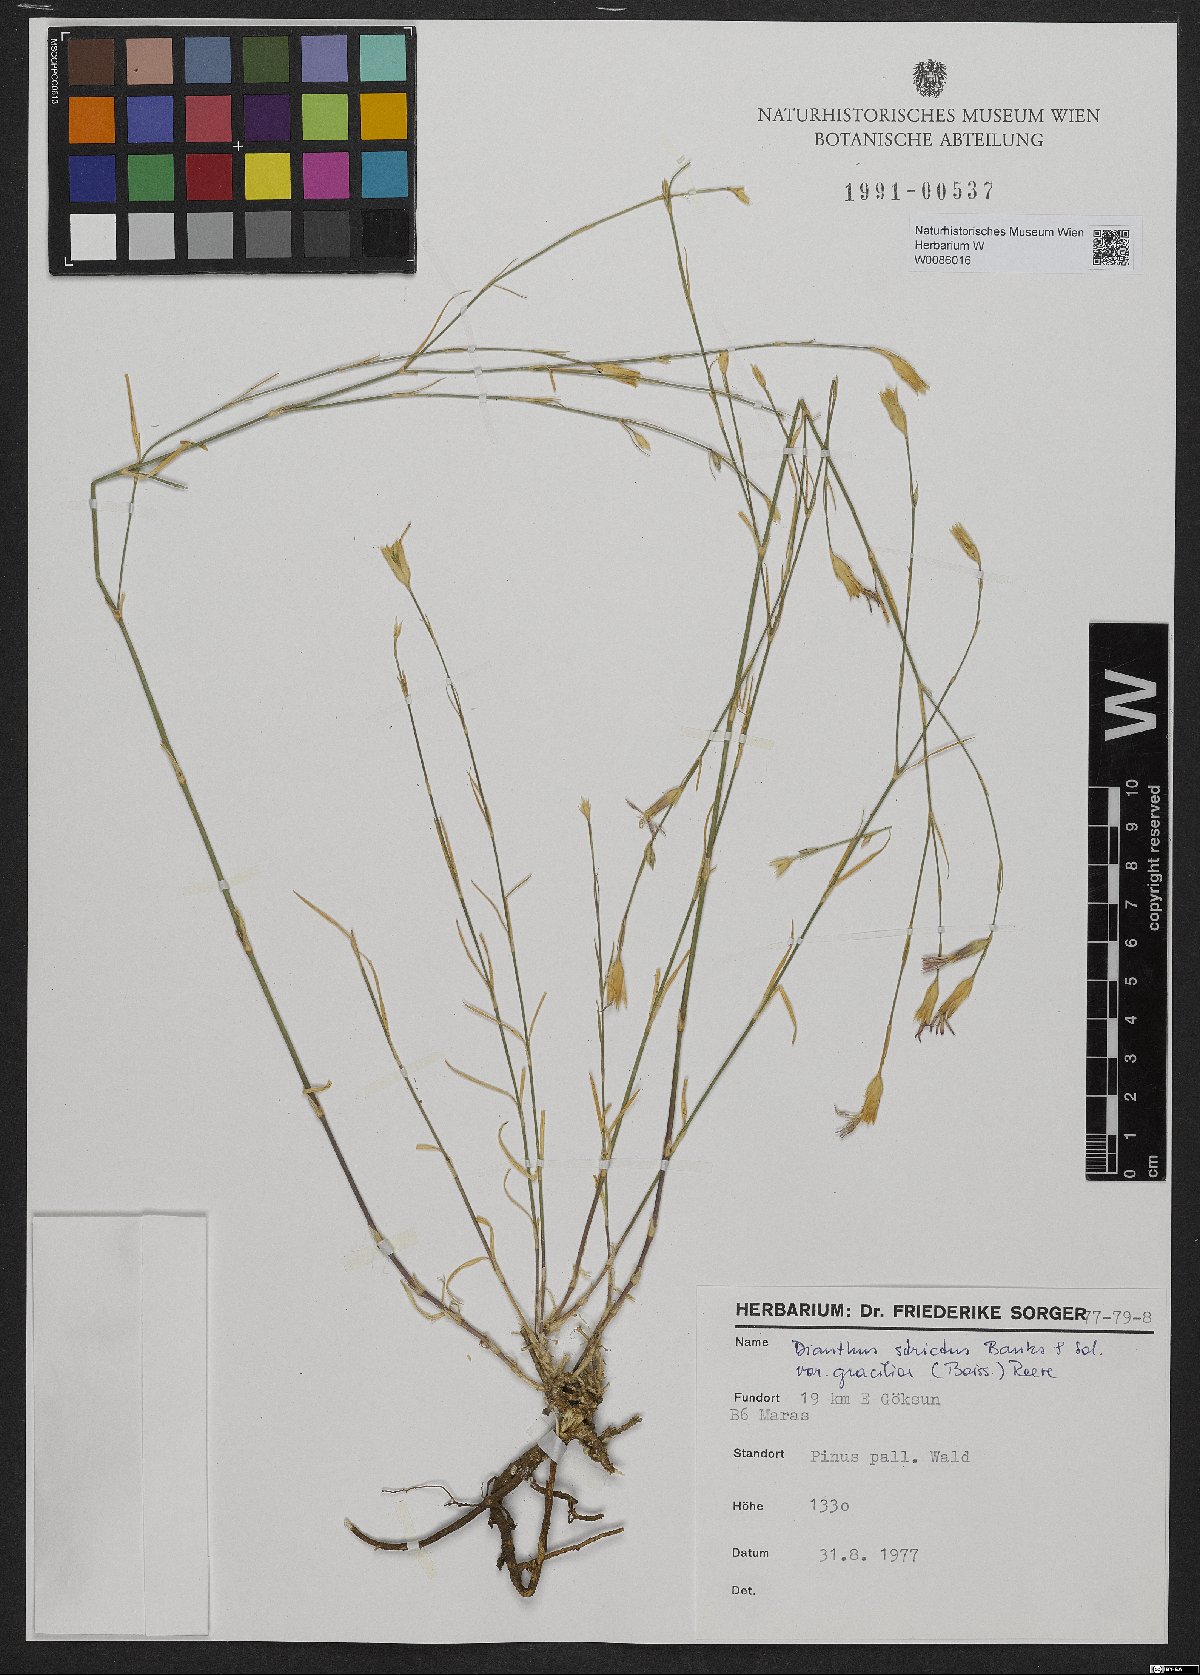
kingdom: Plantae
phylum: Tracheophyta
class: Magnoliopsida
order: Caryophyllales
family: Caryophyllaceae
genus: Dianthus
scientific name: Dianthus strictus
